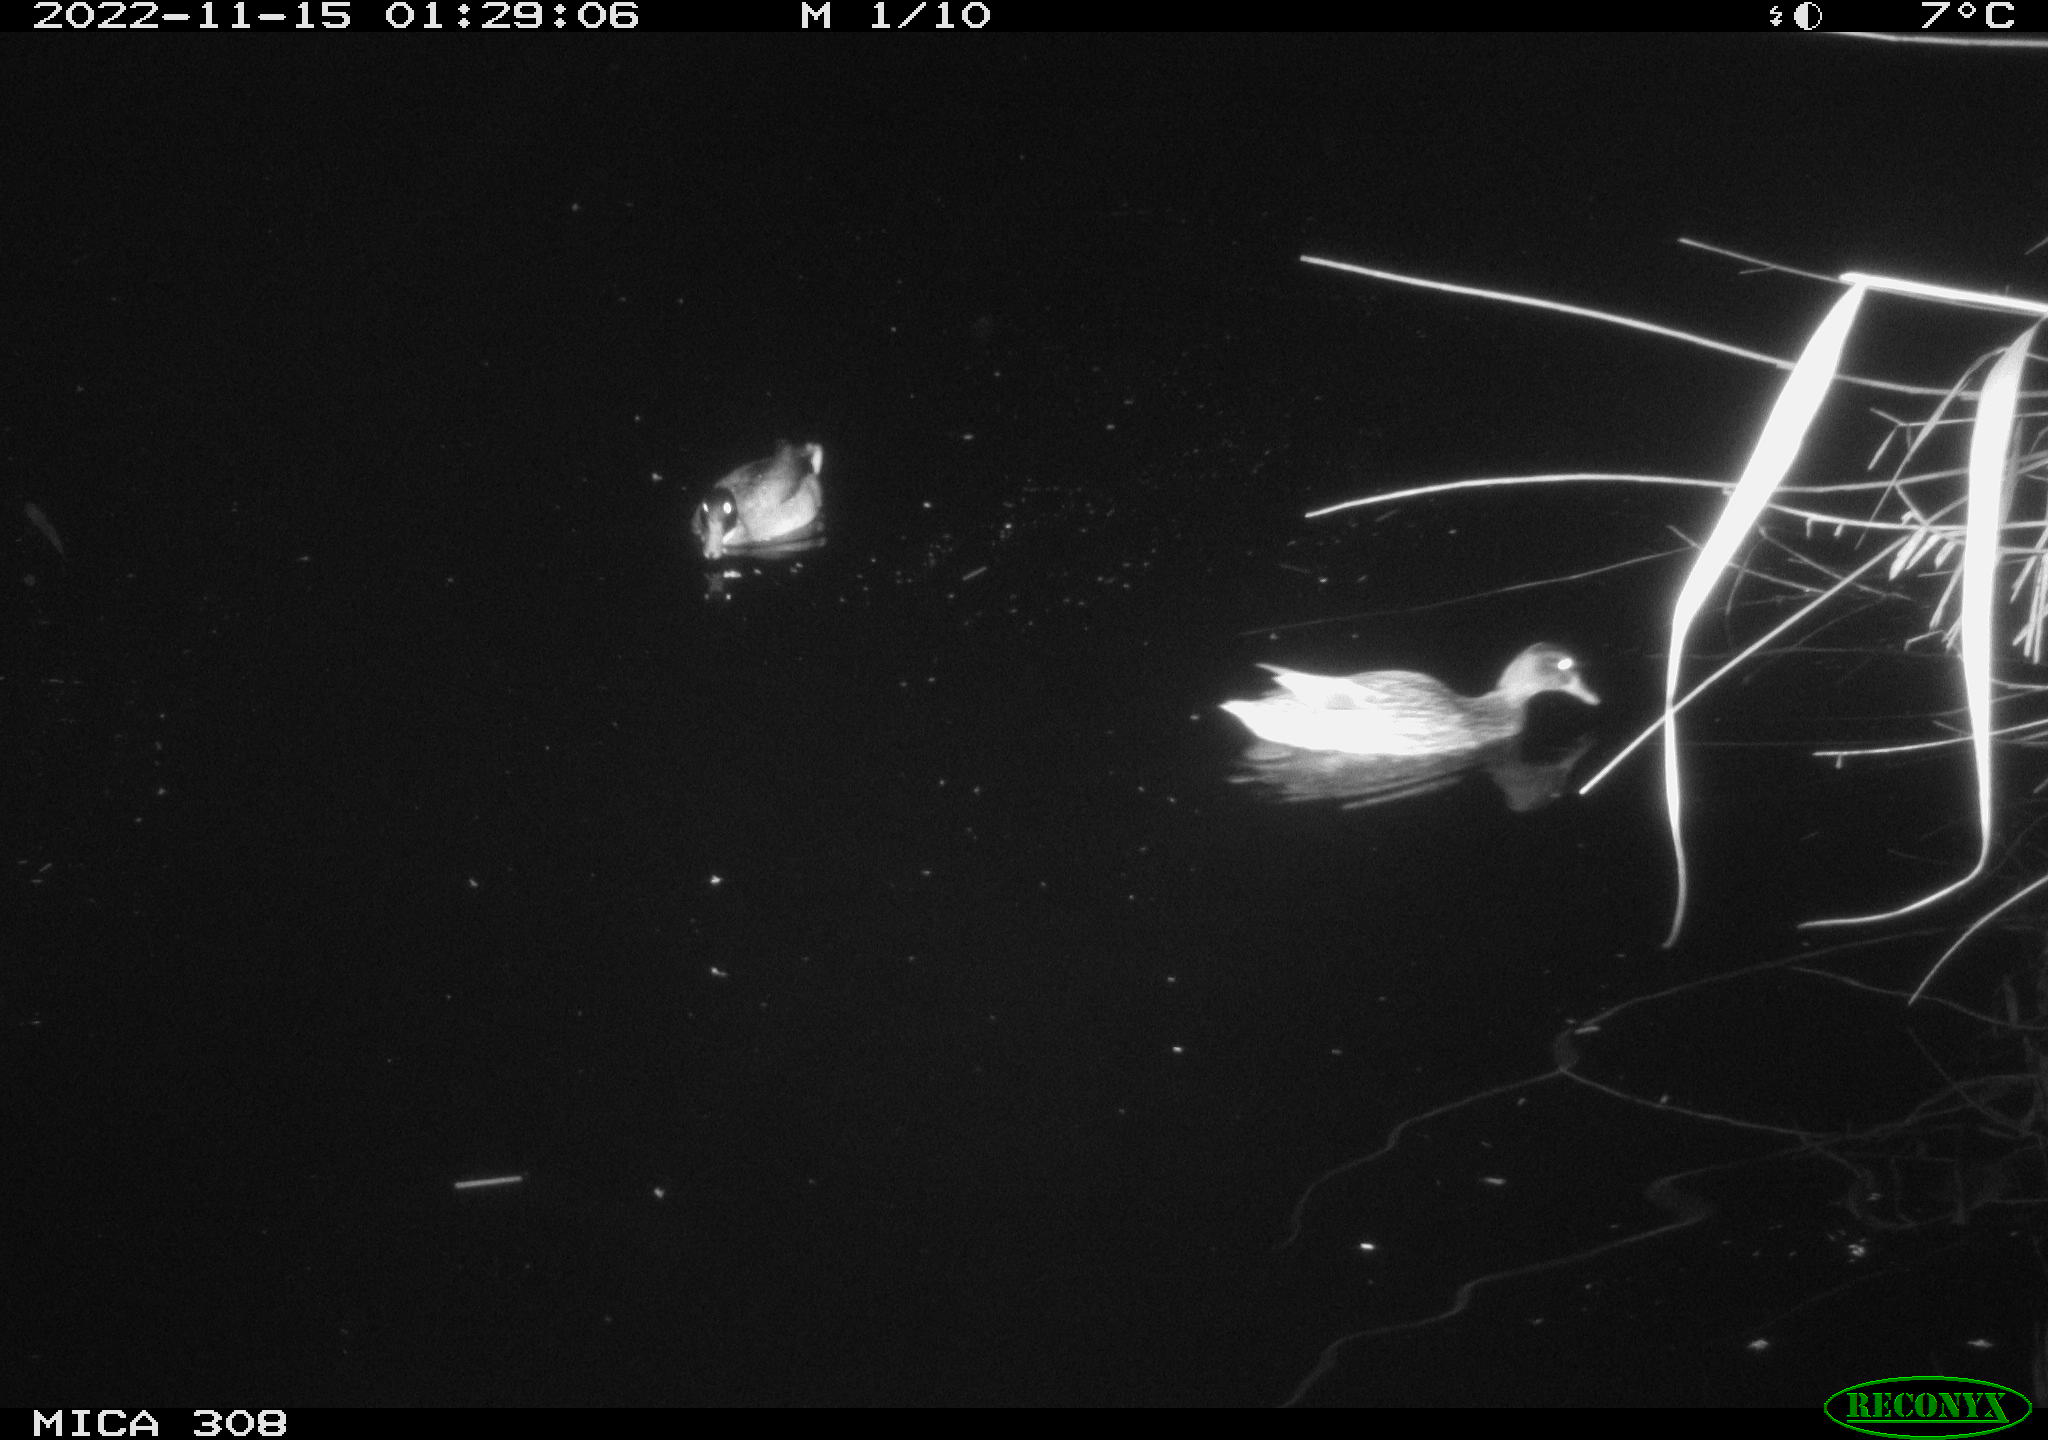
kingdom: Animalia
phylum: Chordata
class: Aves
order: Anseriformes
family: Anatidae
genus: Anas
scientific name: Anas
